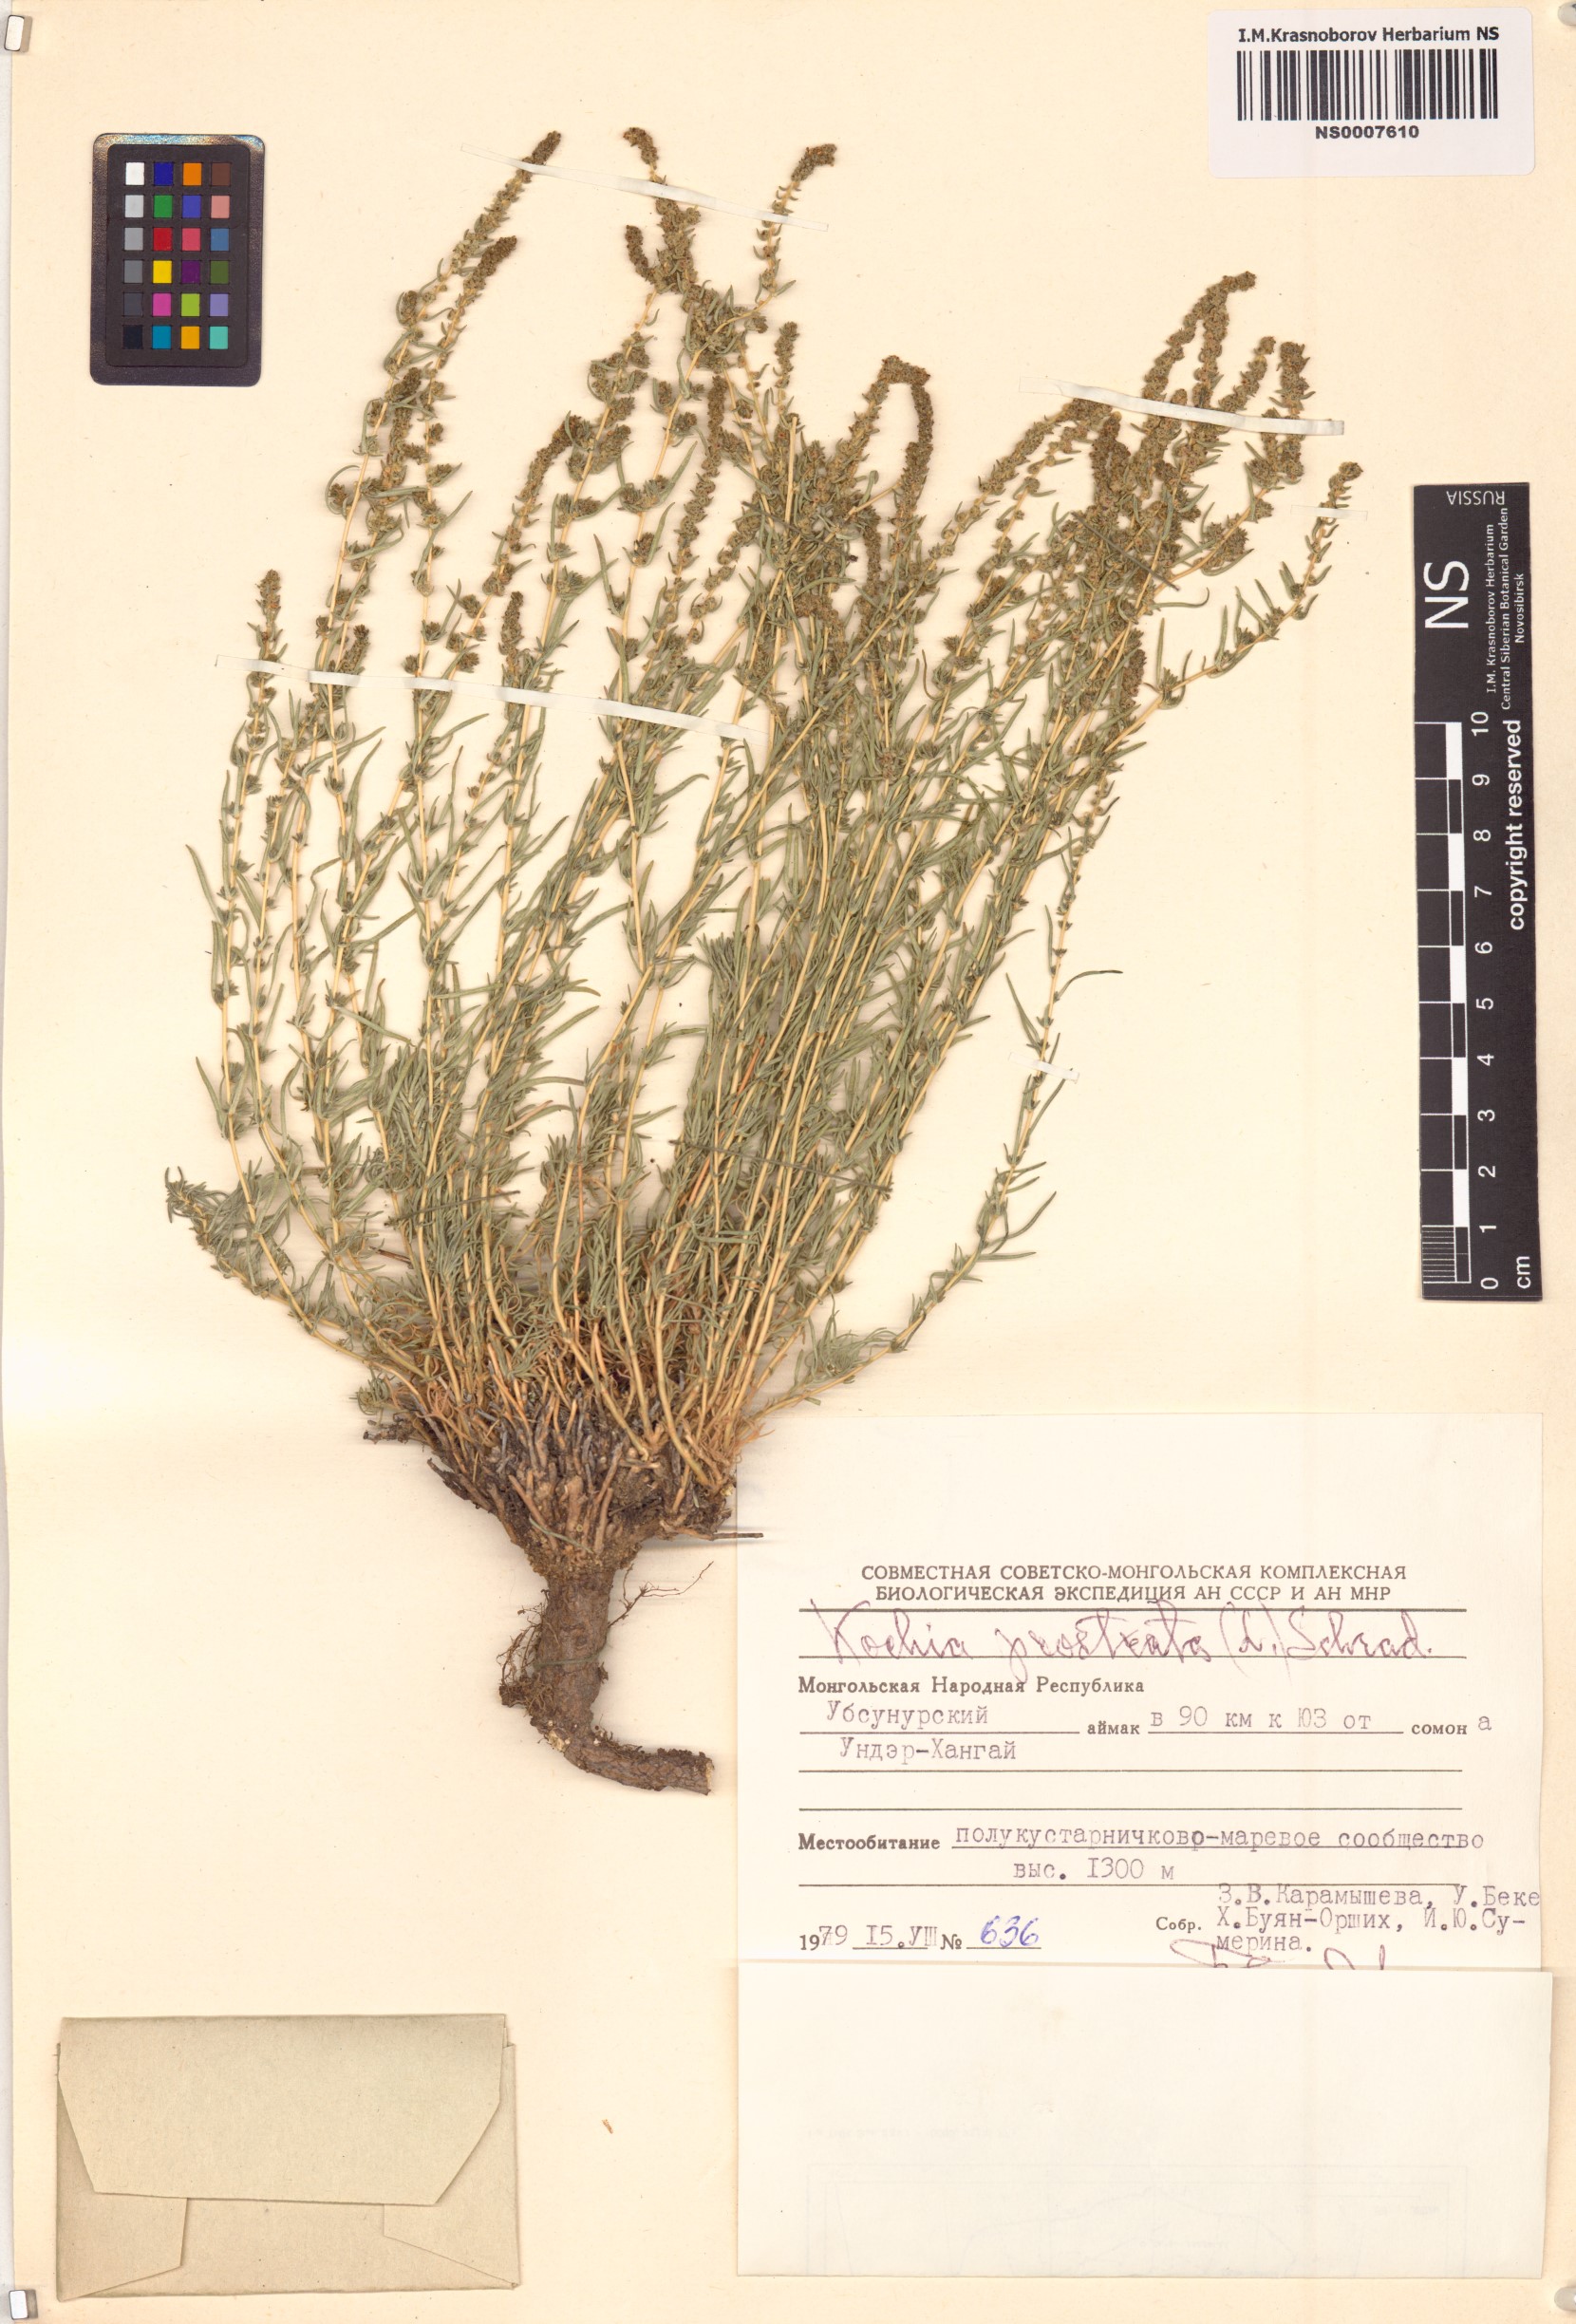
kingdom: Plantae
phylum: Tracheophyta
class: Magnoliopsida
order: Caryophyllales
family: Amaranthaceae
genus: Bassia
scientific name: Bassia prostrata
